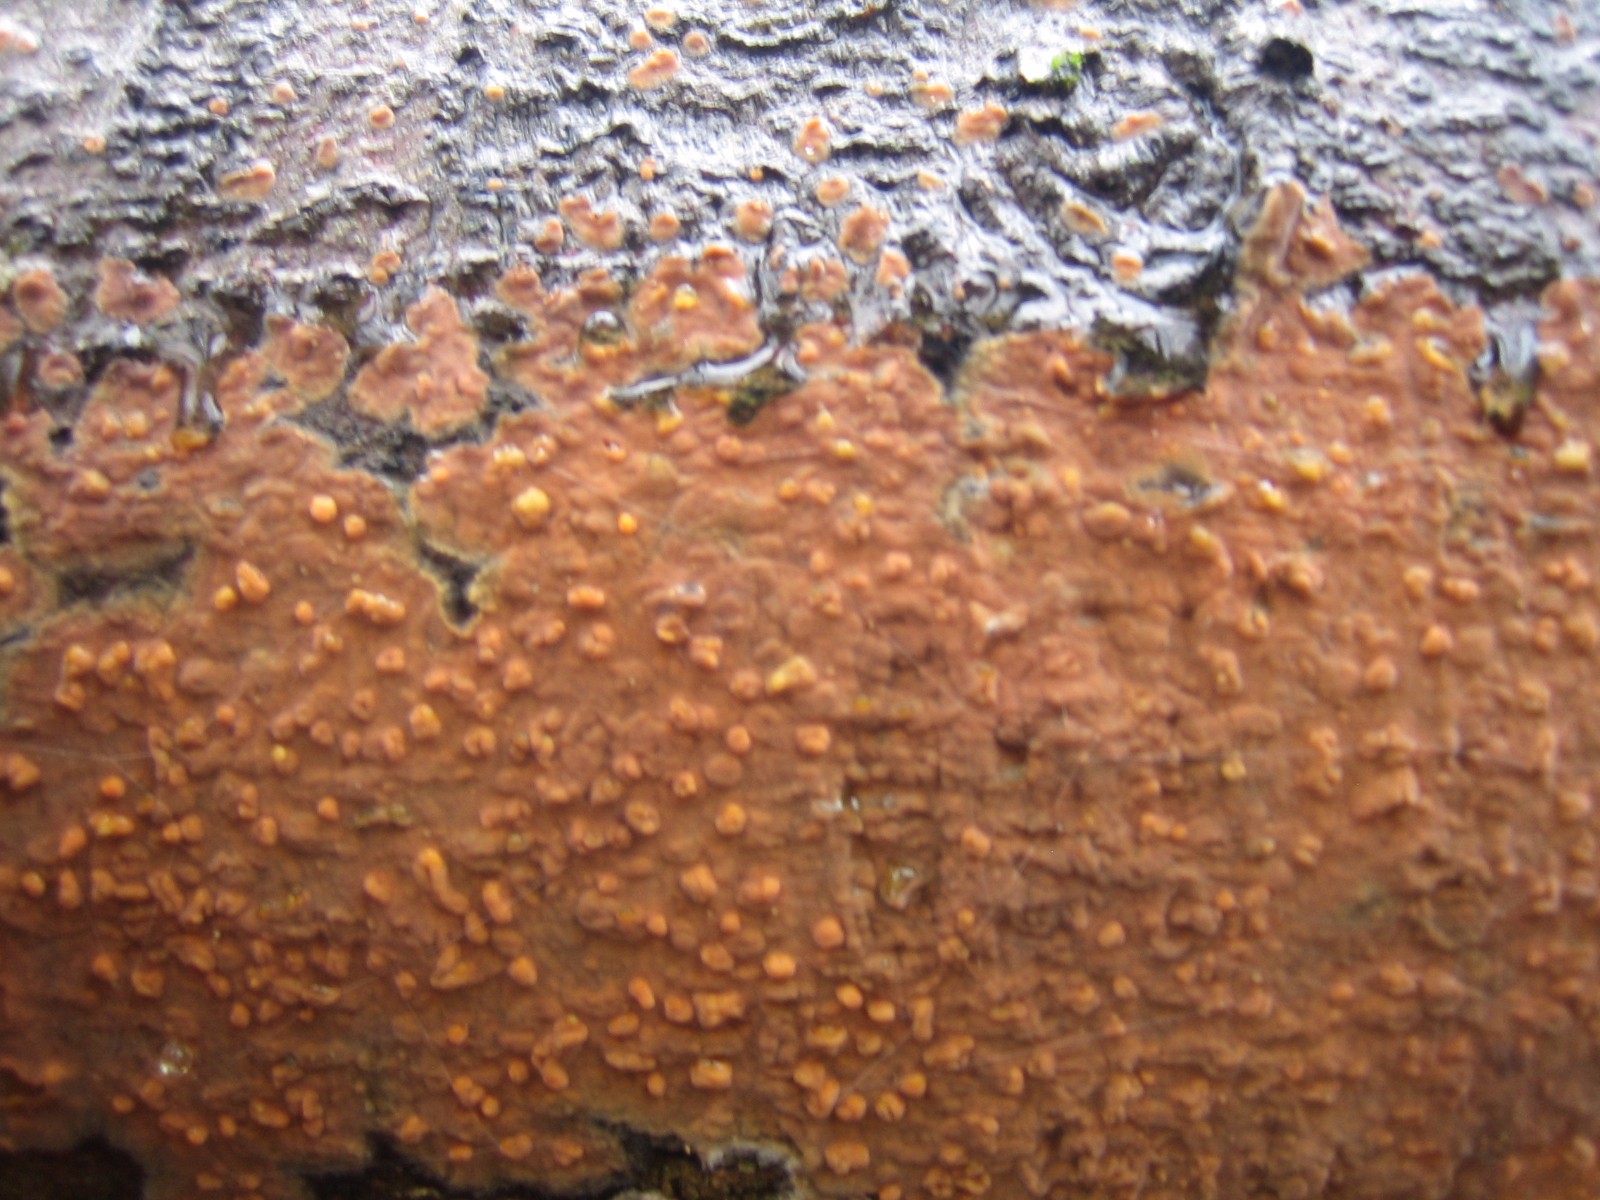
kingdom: Fungi
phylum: Basidiomycota
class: Agaricomycetes
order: Russulales
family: Peniophoraceae
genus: Peniophora
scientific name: Peniophora incarnata
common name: laksefarvet voksskind
